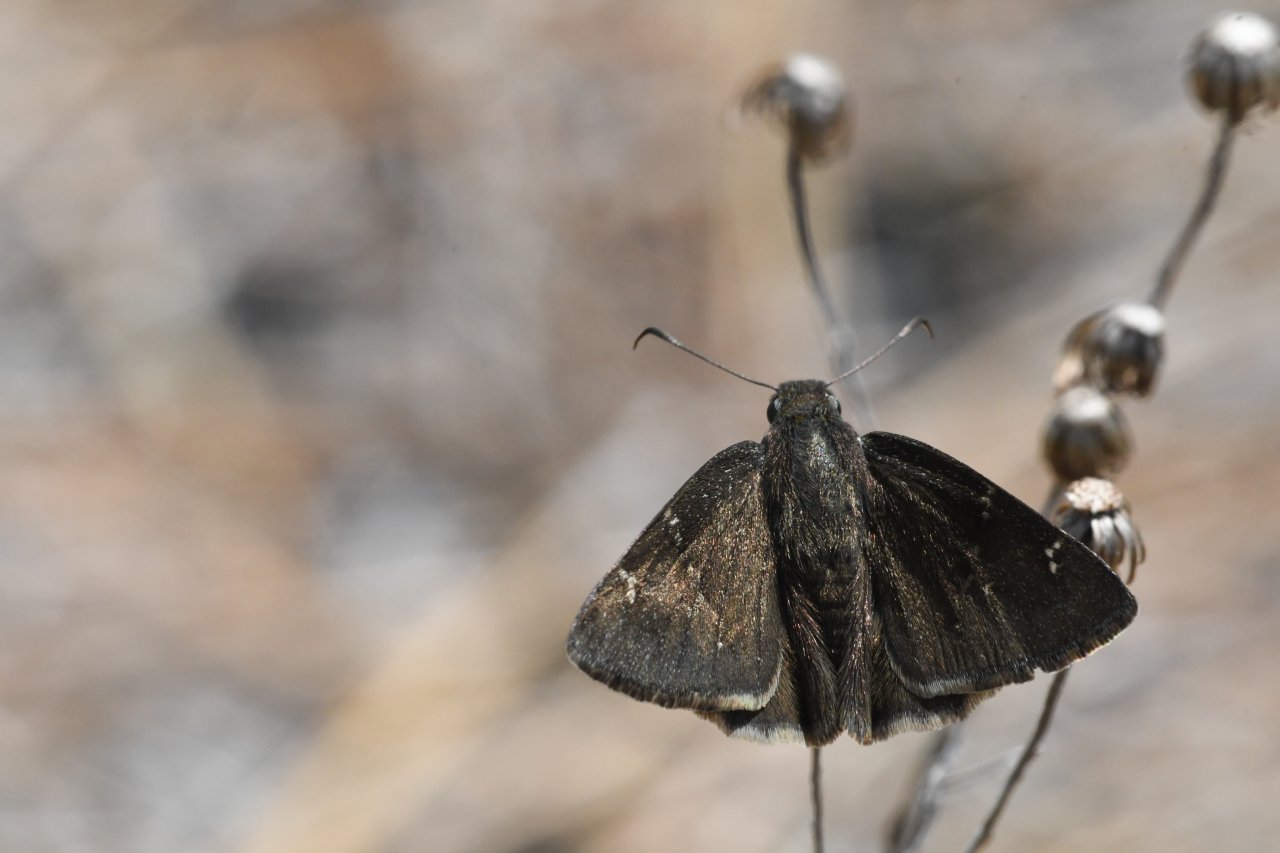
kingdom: Animalia
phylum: Arthropoda
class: Insecta
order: Lepidoptera
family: Hesperiidae
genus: Autochton
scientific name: Autochton
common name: Northern Cloudywing
